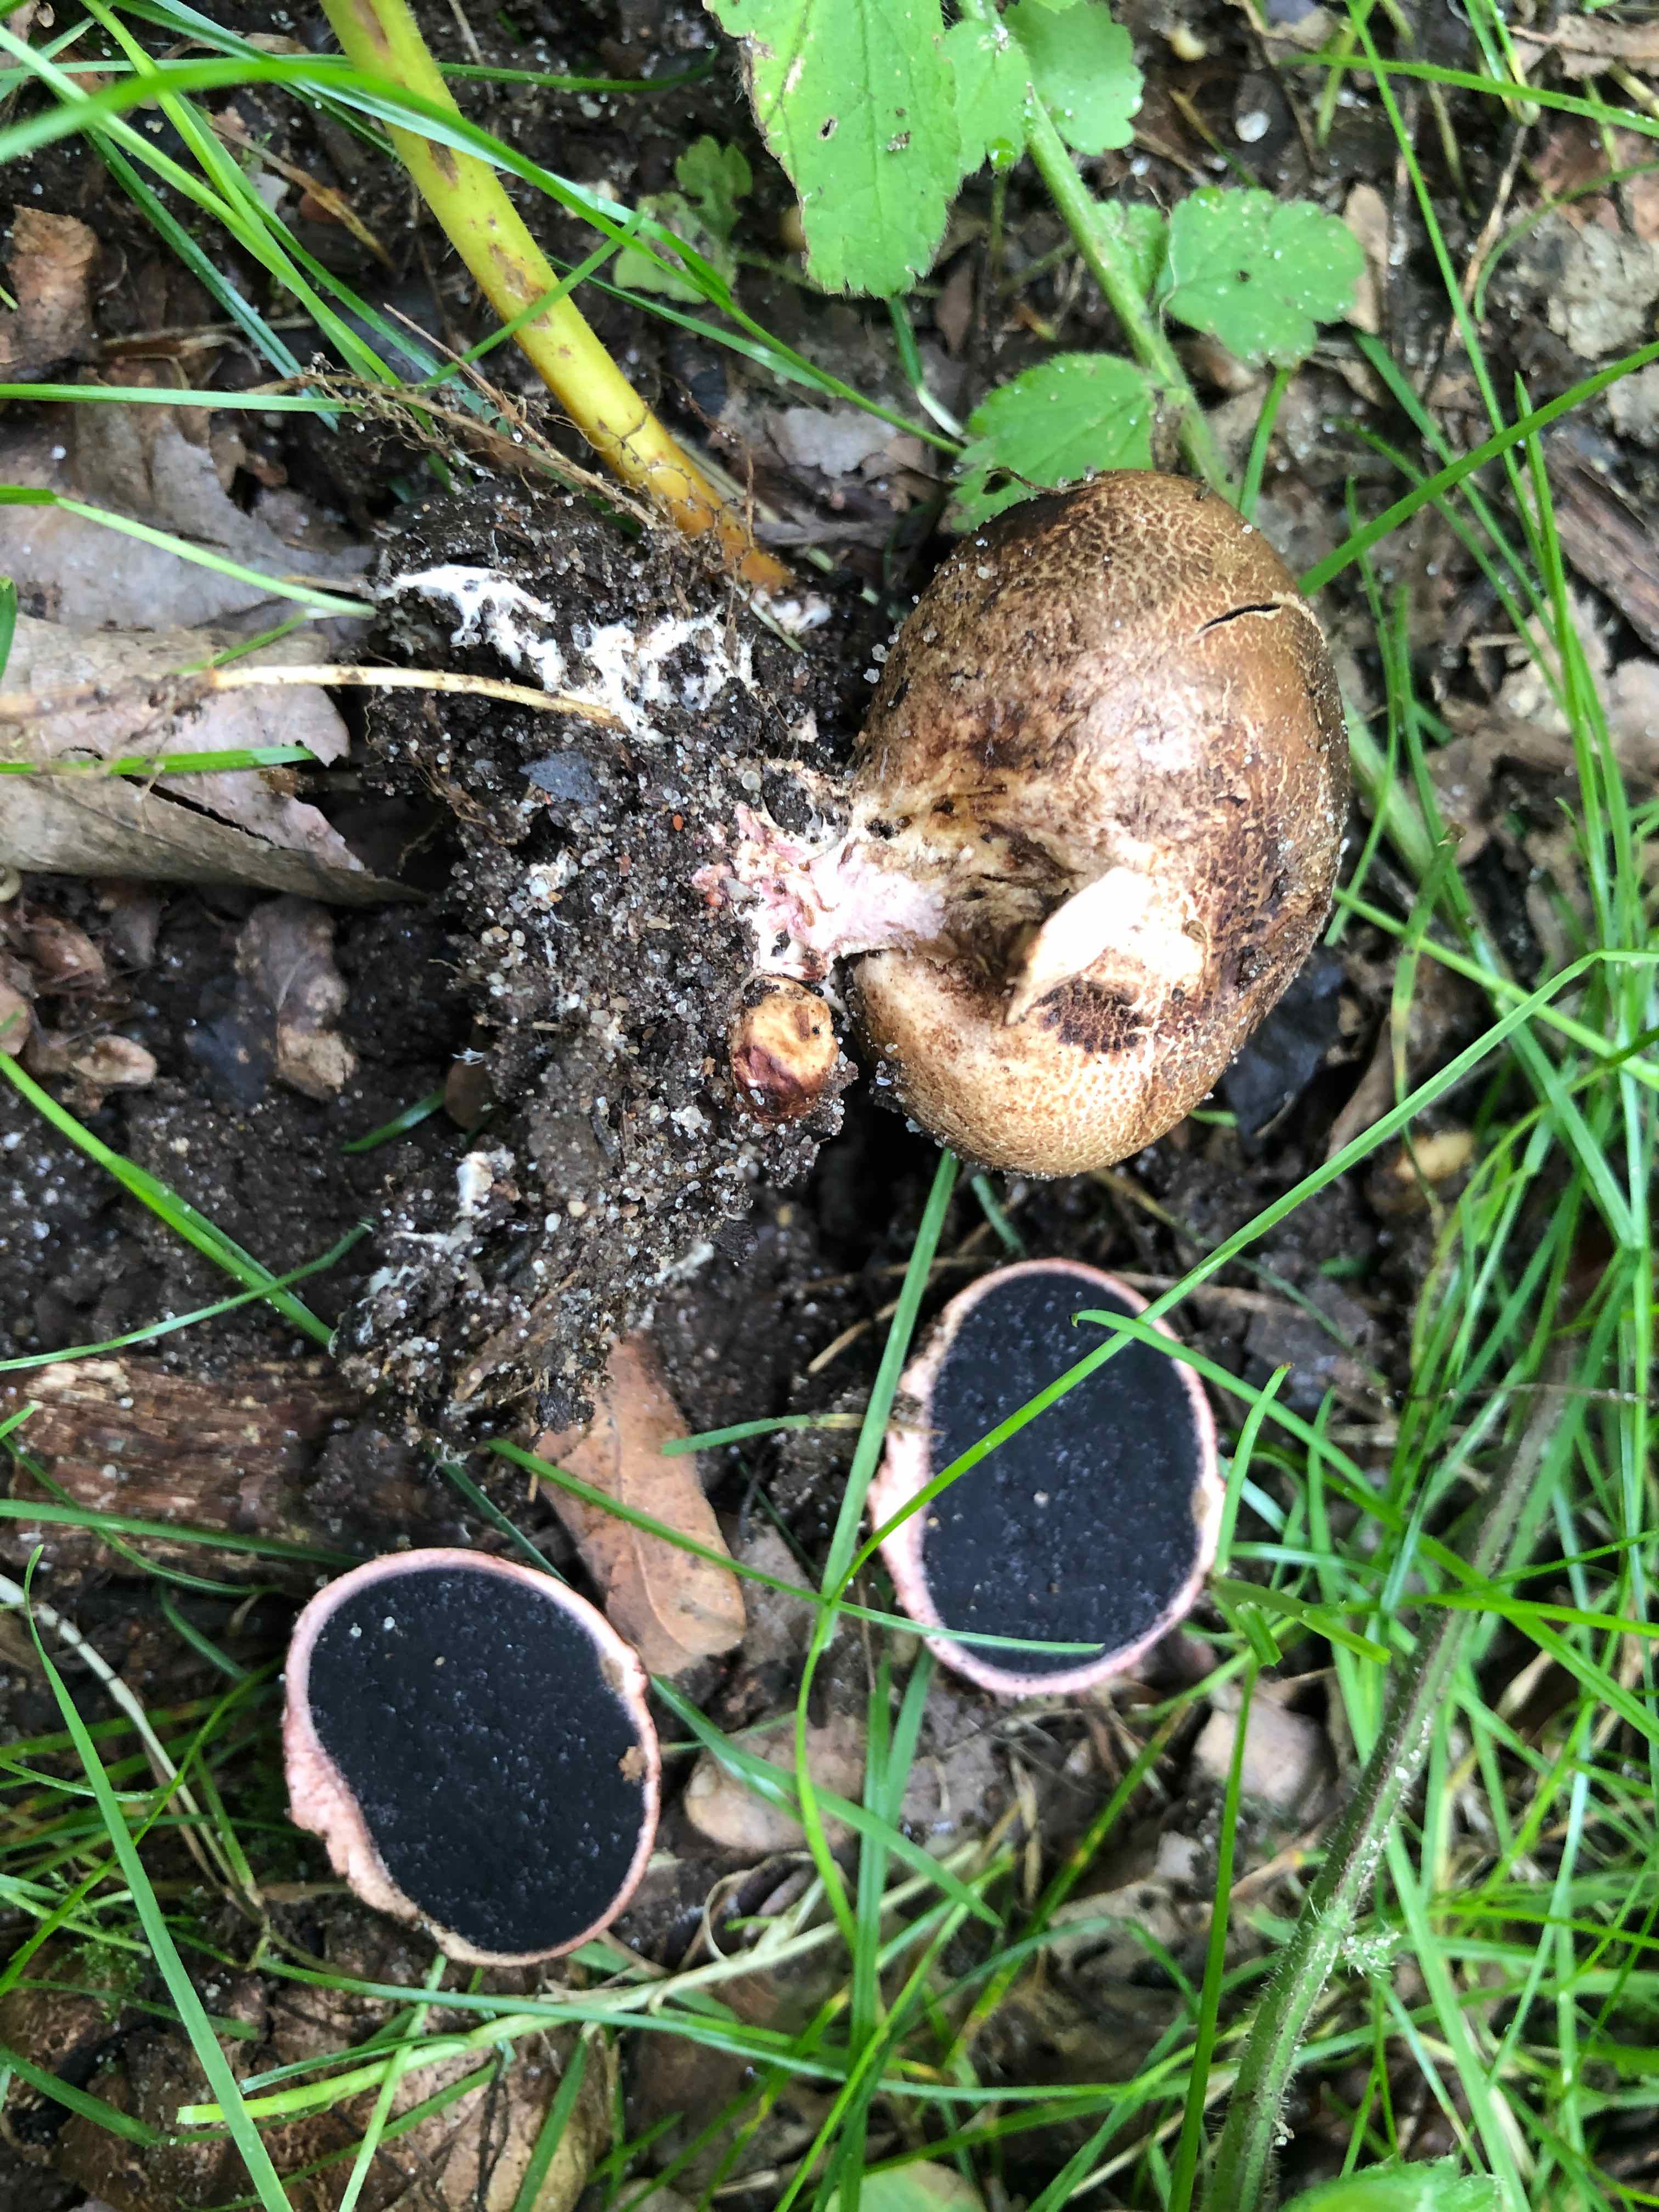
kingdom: Fungi
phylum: Basidiomycota
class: Agaricomycetes
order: Boletales
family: Sclerodermataceae
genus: Scleroderma
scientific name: Scleroderma verrucosum
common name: stilket bruskbold
